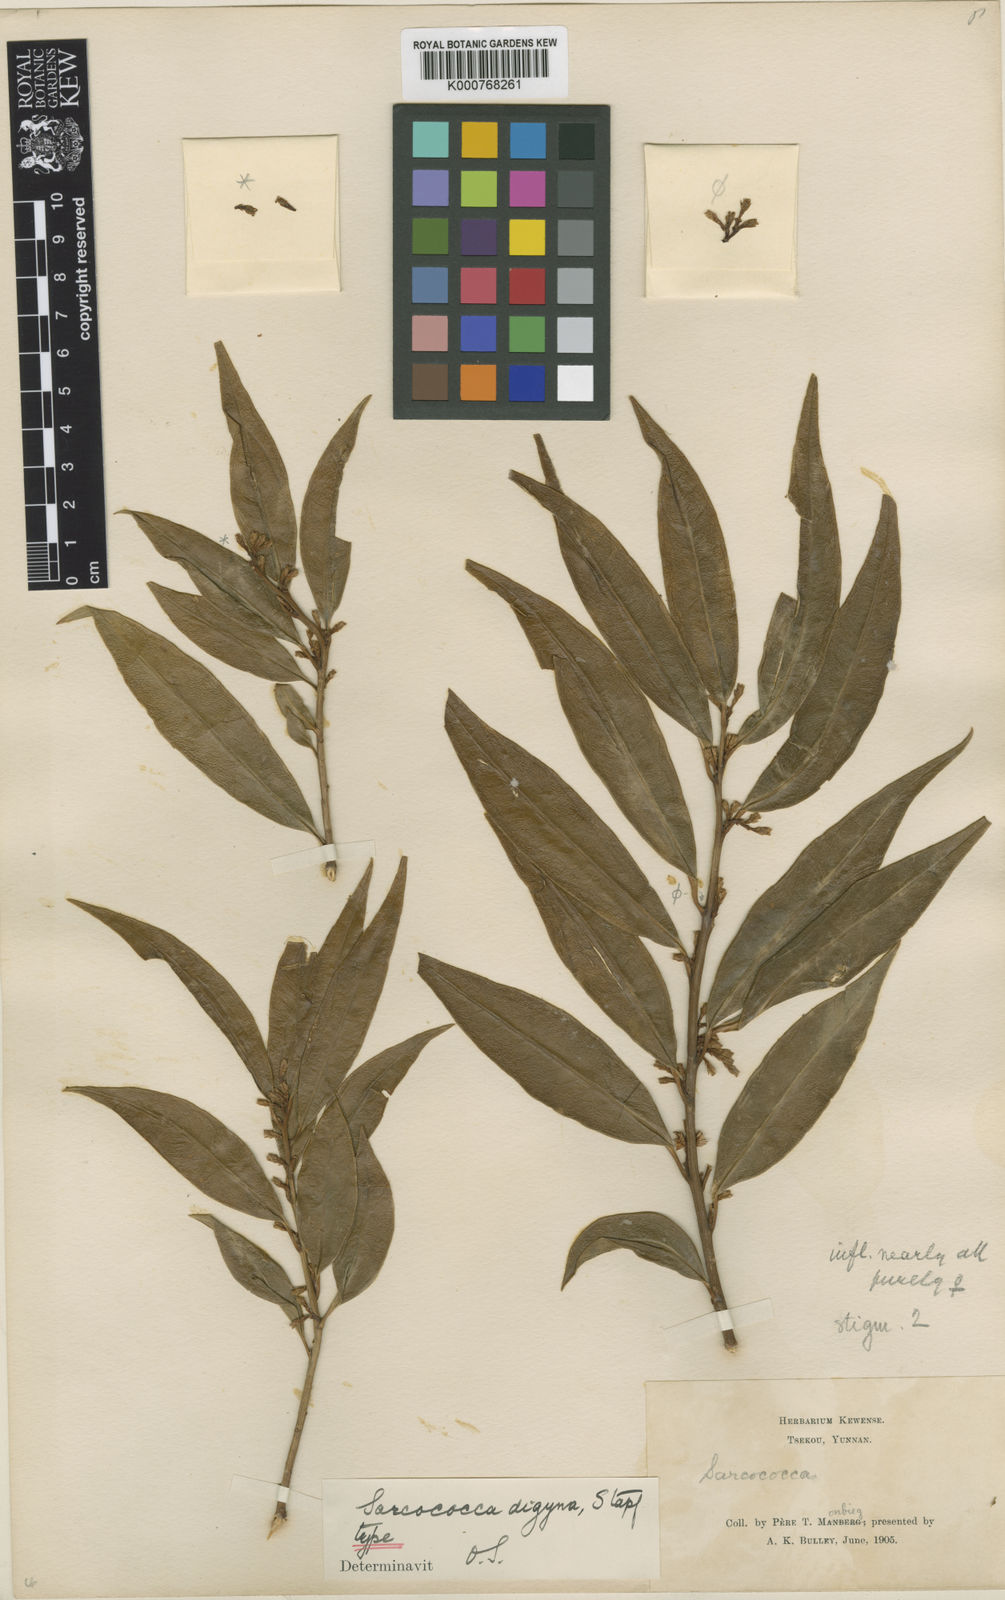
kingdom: Plantae
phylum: Tracheophyta
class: Magnoliopsida
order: Buxales
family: Buxaceae
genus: Sarcococca
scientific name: Sarcococca
